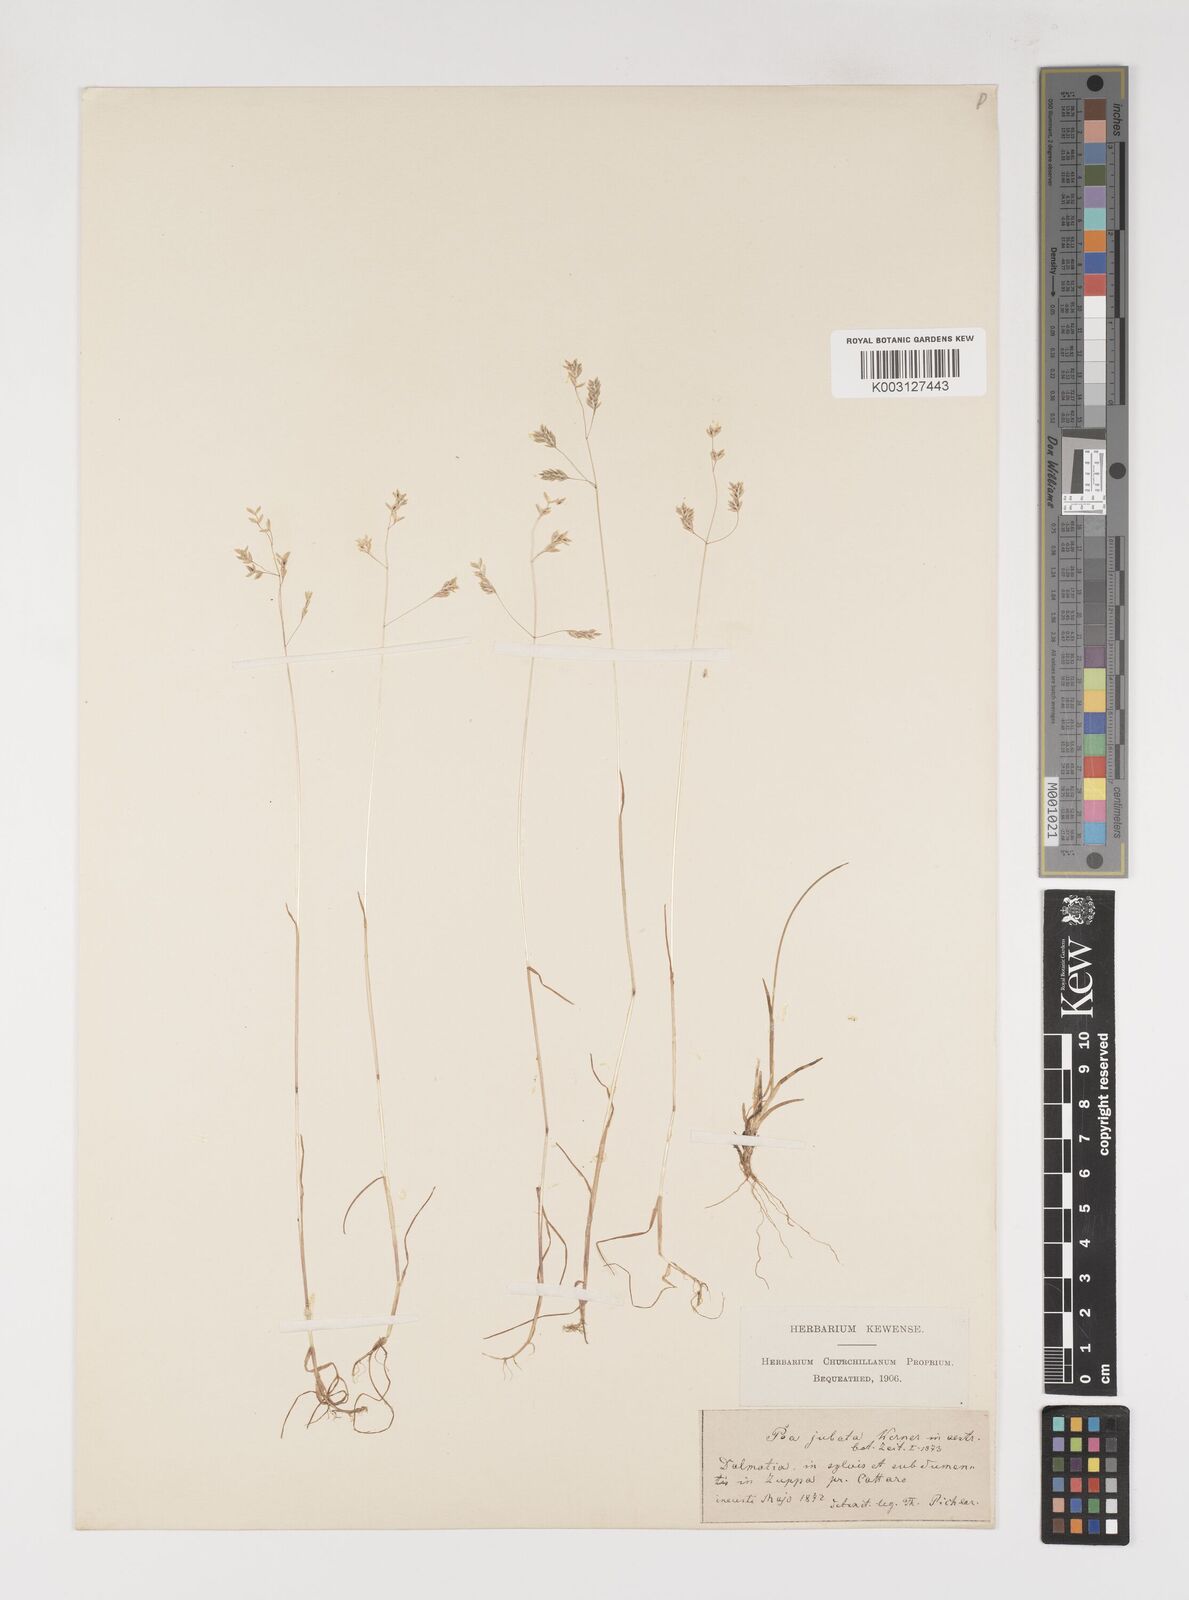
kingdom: Plantae
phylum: Tracheophyta
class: Liliopsida
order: Poales
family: Poaceae
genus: Poa
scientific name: Poa jubata
